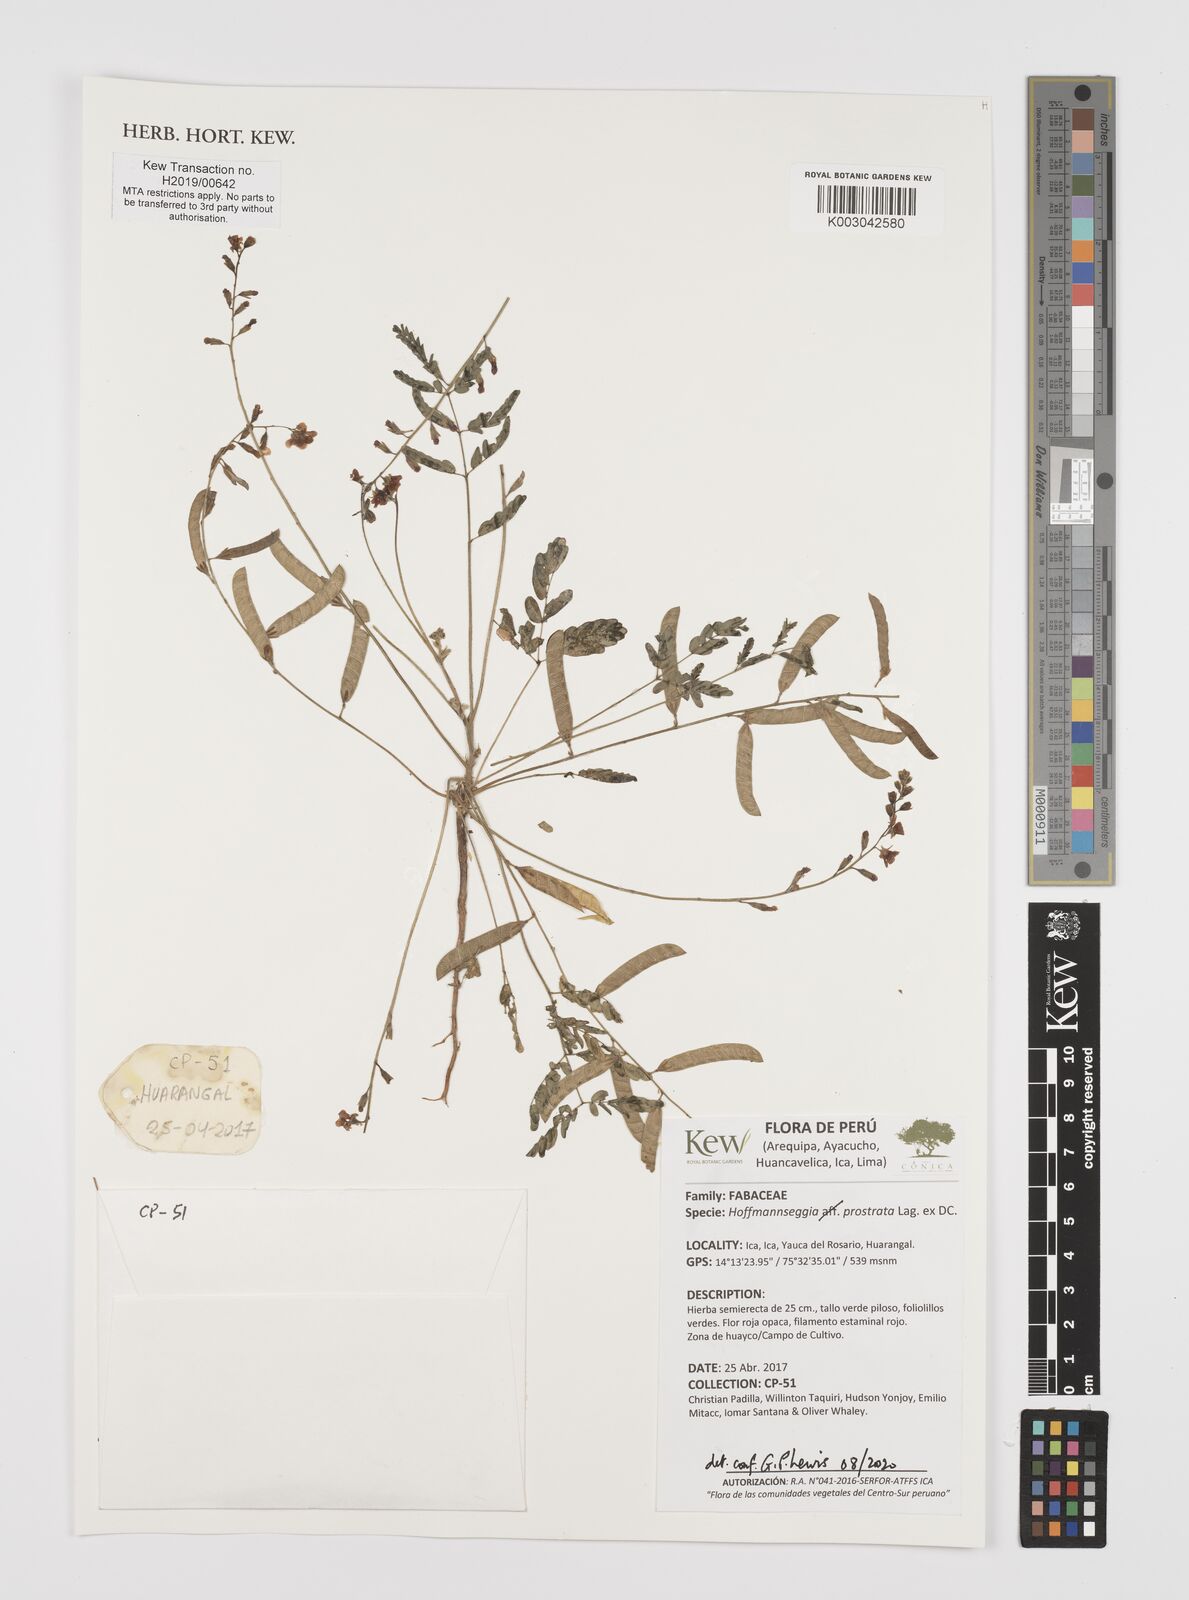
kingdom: Plantae
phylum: Tracheophyta
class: Magnoliopsida
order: Fabales
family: Fabaceae
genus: Hoffmannseggia
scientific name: Hoffmannseggia prostrata
